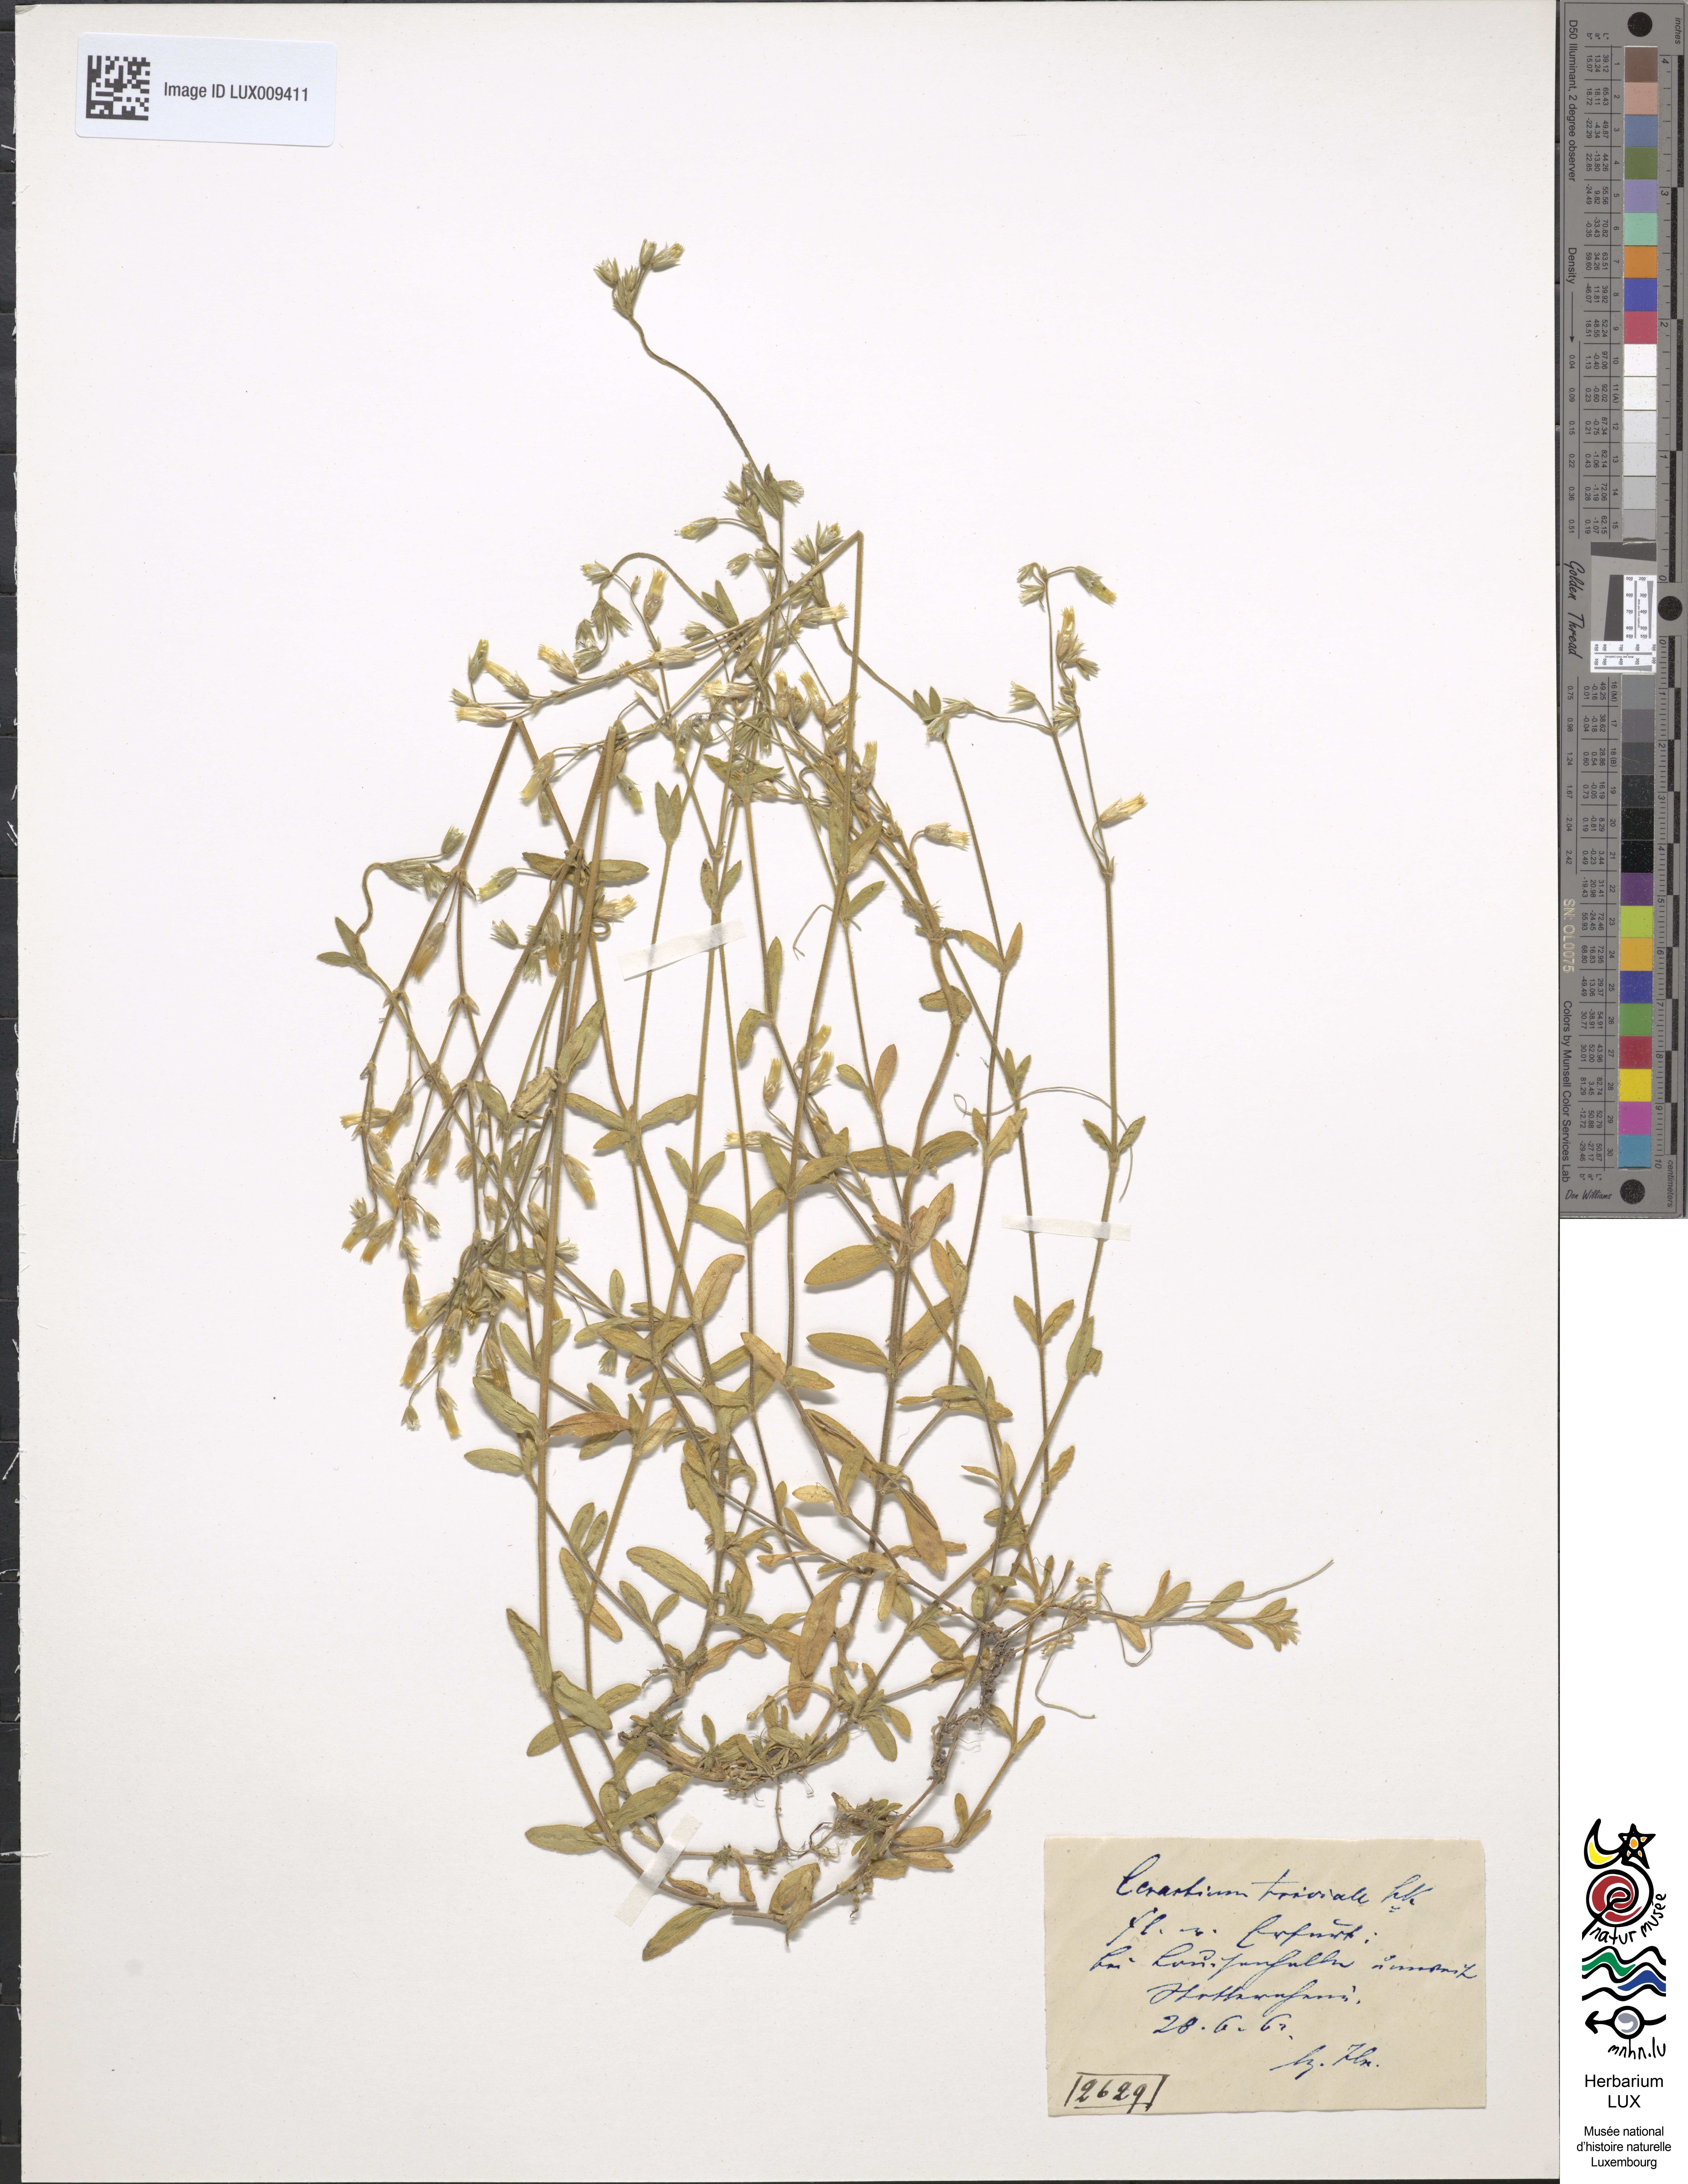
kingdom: Plantae
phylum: Tracheophyta
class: Magnoliopsida
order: Caryophyllales
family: Caryophyllaceae
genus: Cerastium
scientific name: Cerastium holosteoides
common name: Big chickweed
